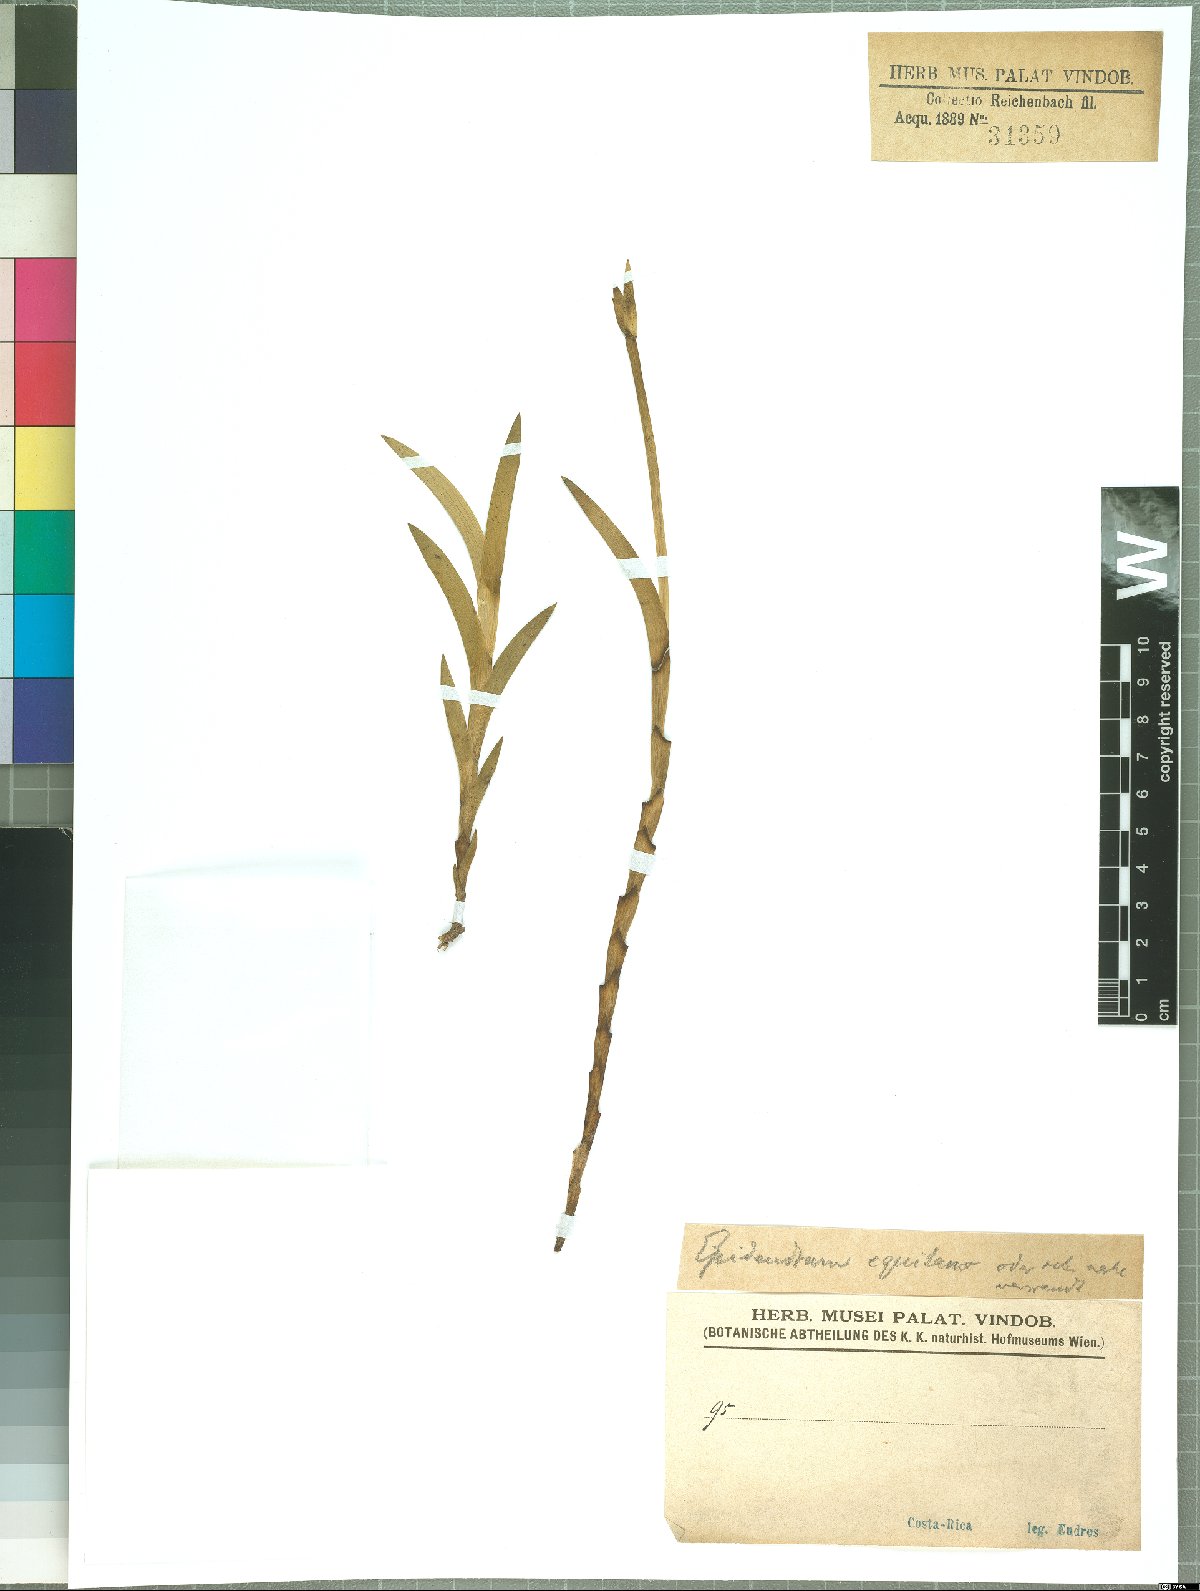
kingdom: Plantae
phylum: Tracheophyta
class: Liliopsida
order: Asparagales
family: Orchidaceae
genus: Jacquiniella
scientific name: Jacquiniella equitantifolia
